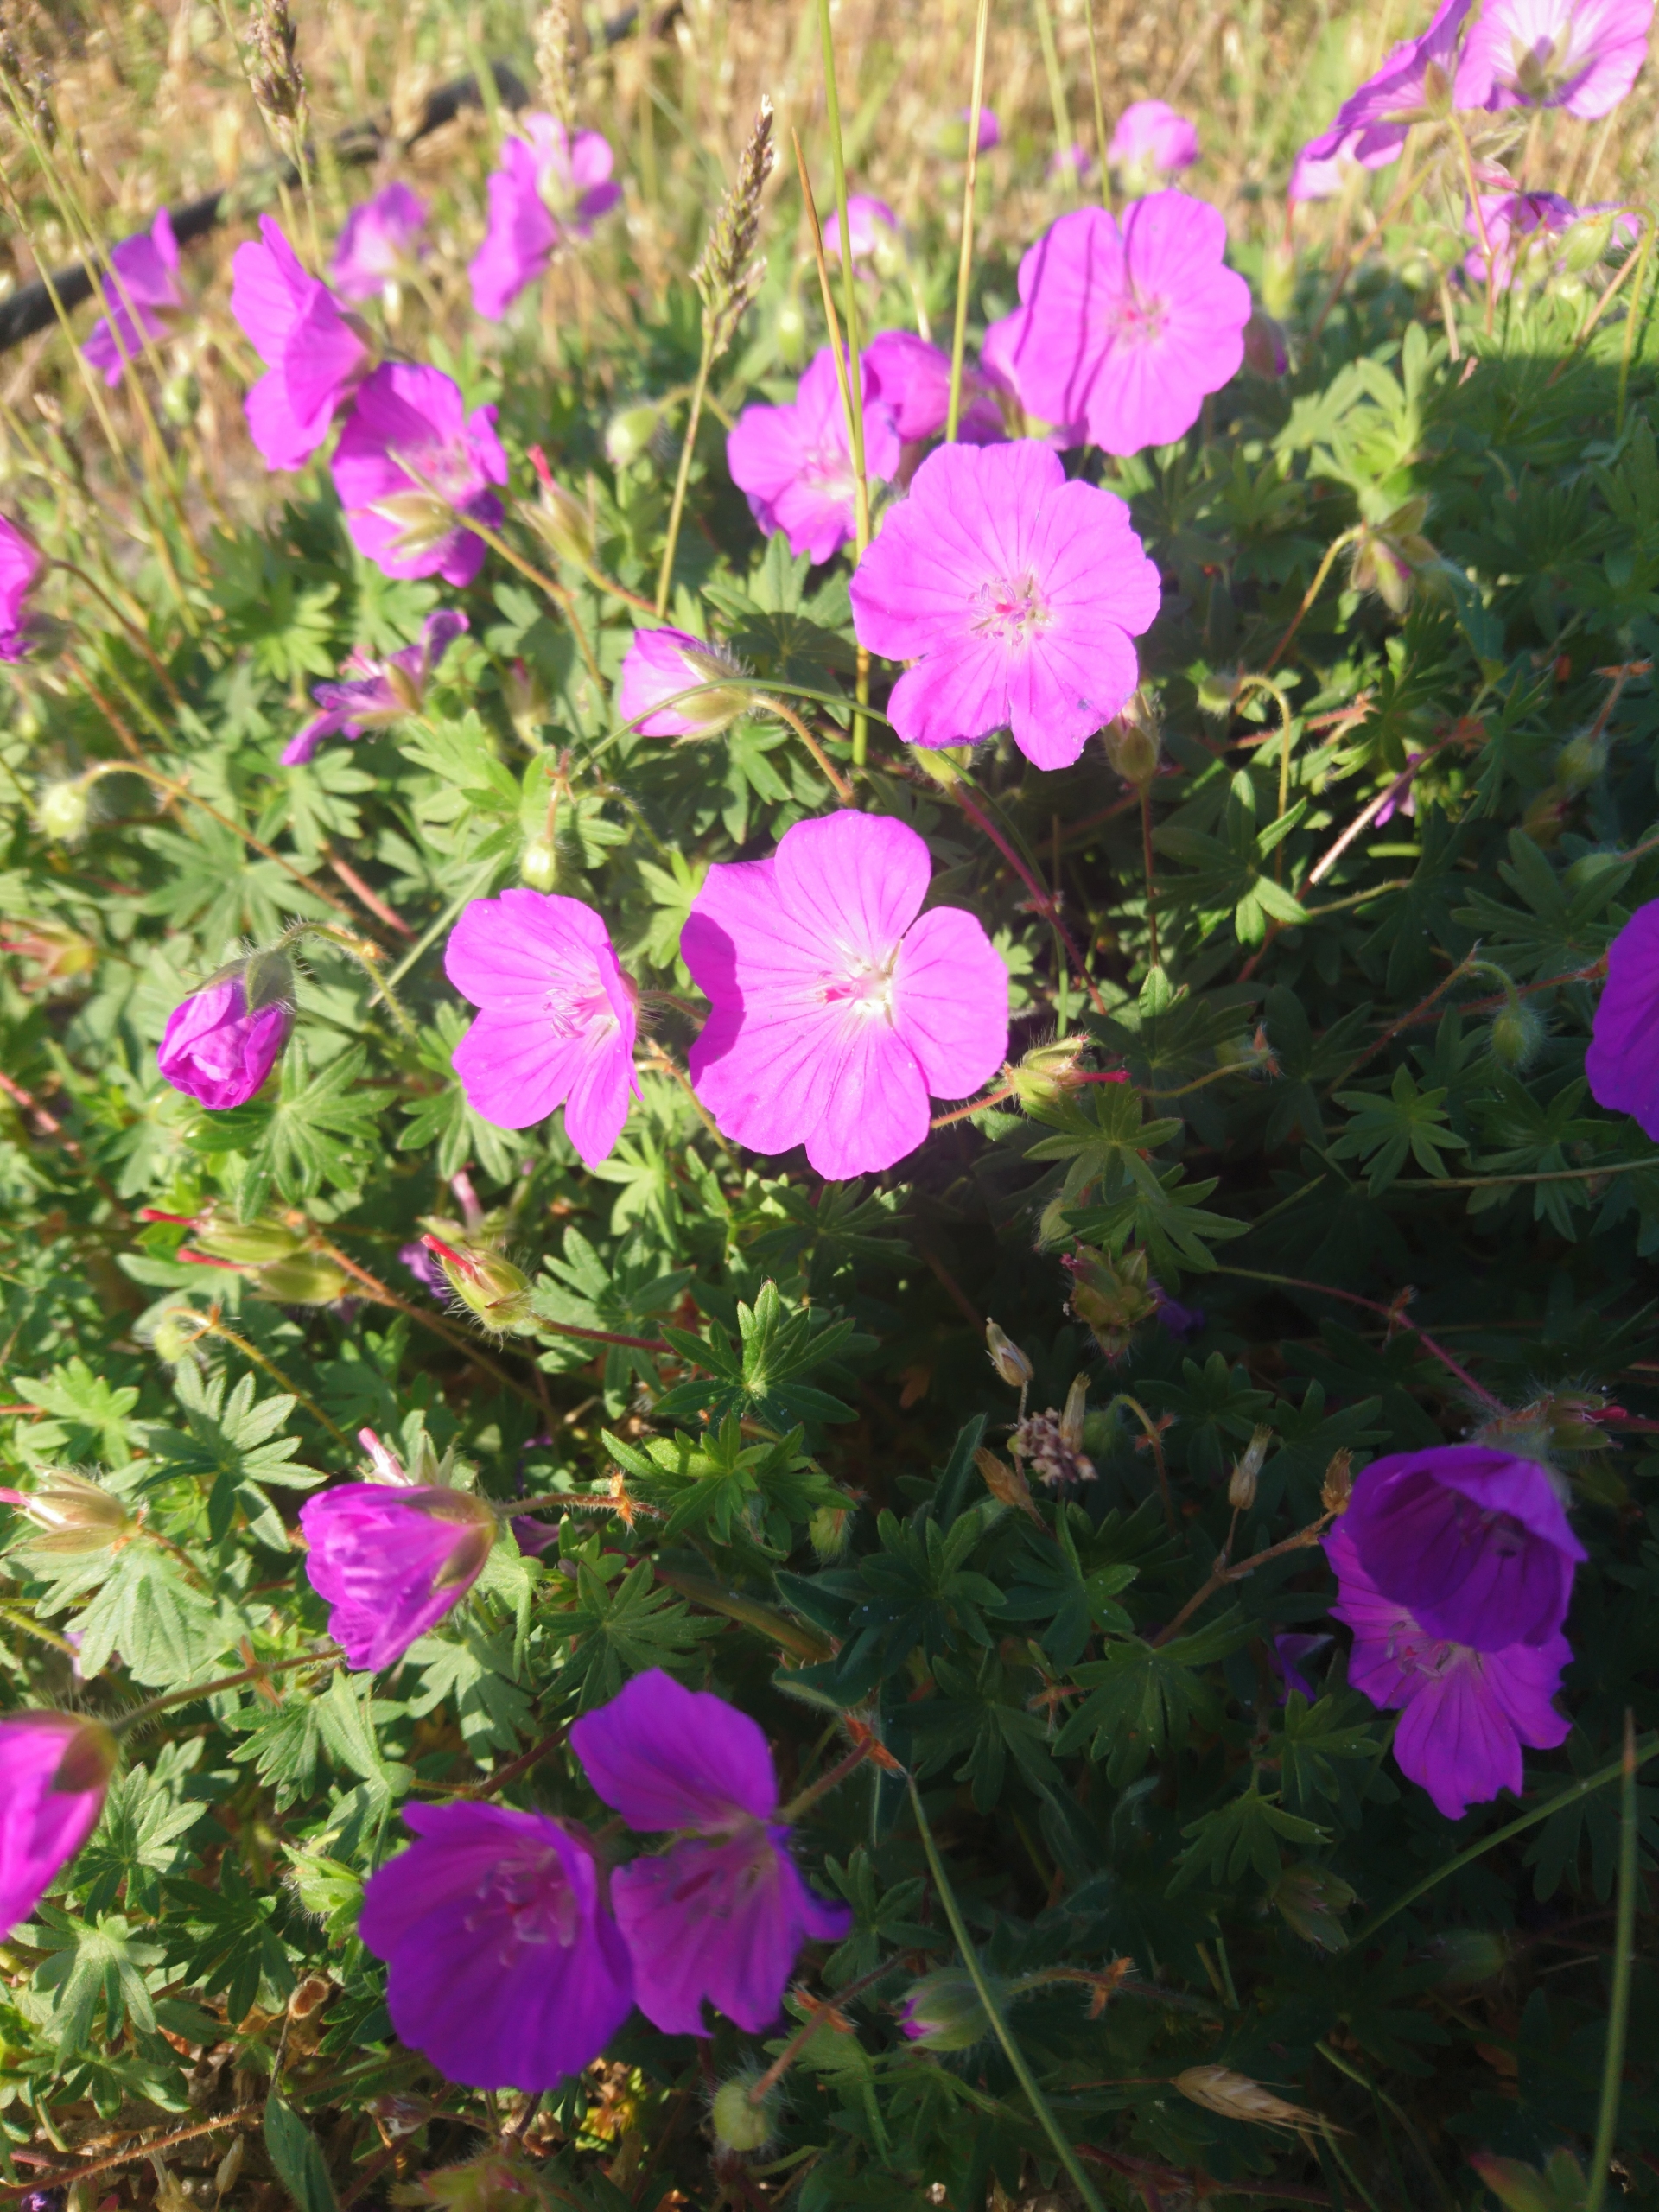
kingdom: Plantae
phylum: Tracheophyta
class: Magnoliopsida
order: Geraniales
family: Geraniaceae
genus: Geranium
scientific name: Geranium sanguineum
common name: Blodrød storkenæb
